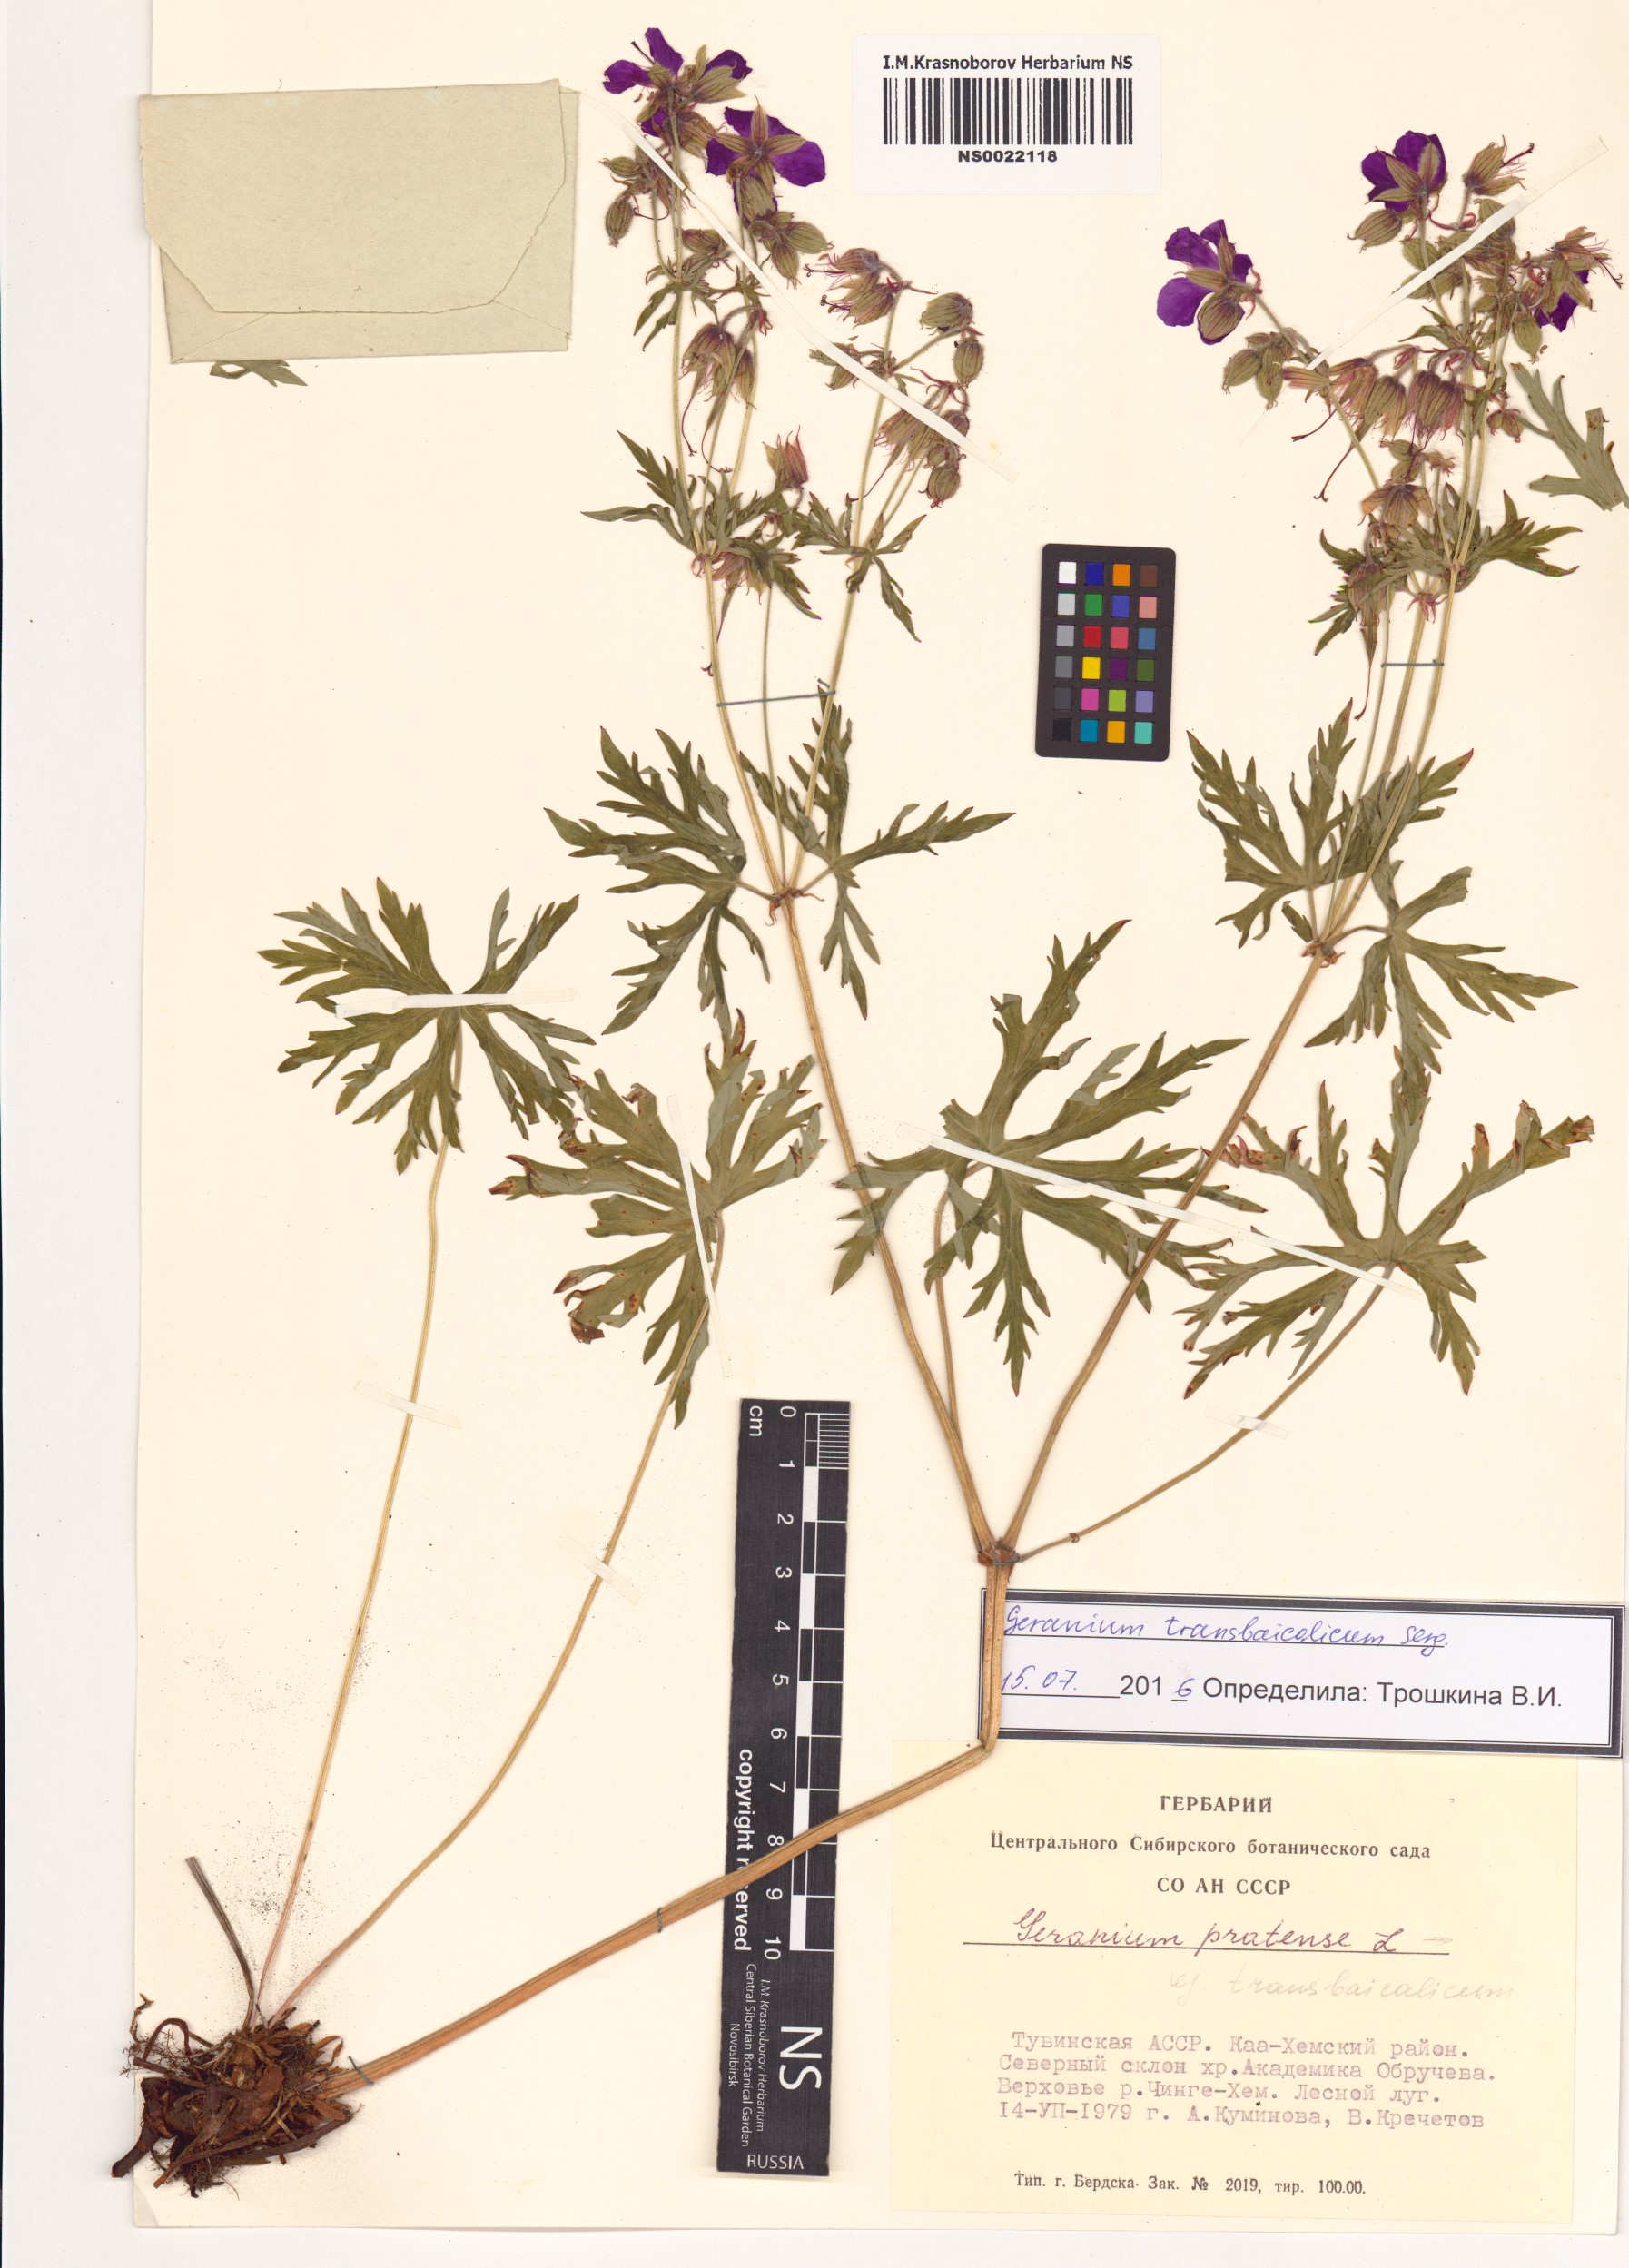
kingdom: Plantae
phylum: Tracheophyta
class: Magnoliopsida
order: Geraniales
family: Geraniaceae
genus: Geranium
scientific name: Geranium pratense
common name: Meadow crane's-bill
